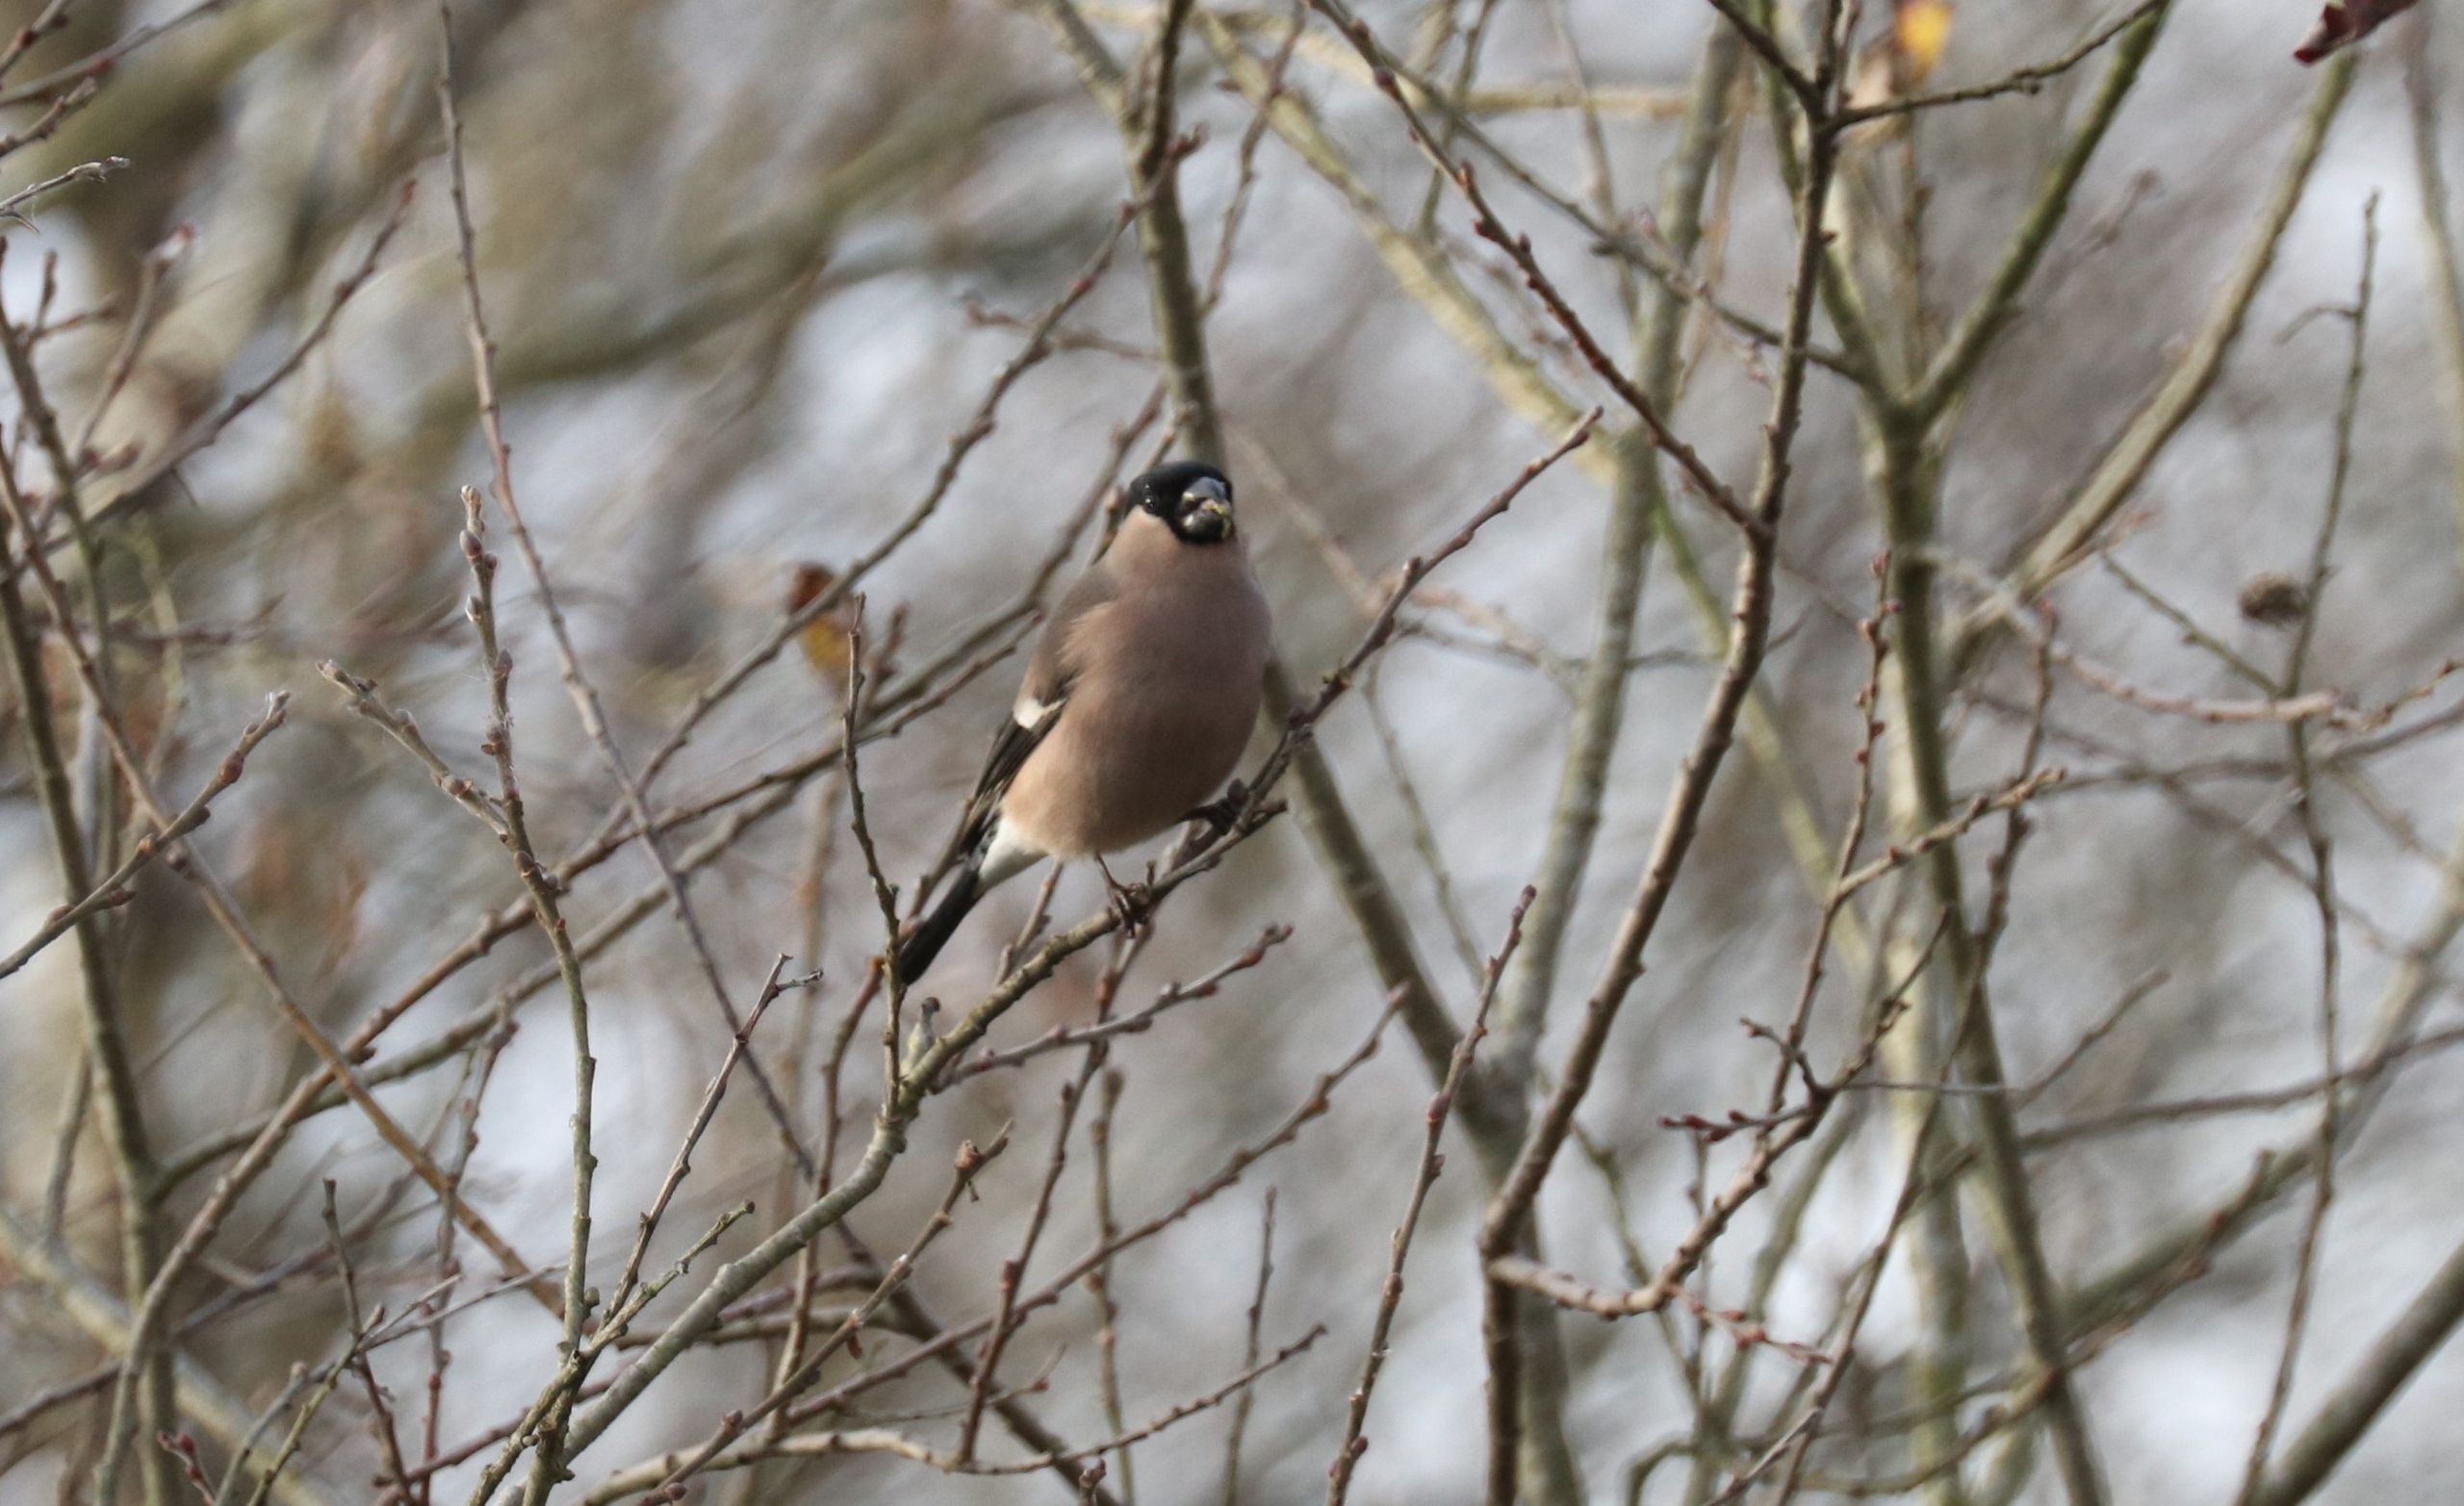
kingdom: Animalia
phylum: Chordata
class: Aves
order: Passeriformes
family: Fringillidae
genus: Pyrrhula
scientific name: Pyrrhula pyrrhula
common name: Dompap
